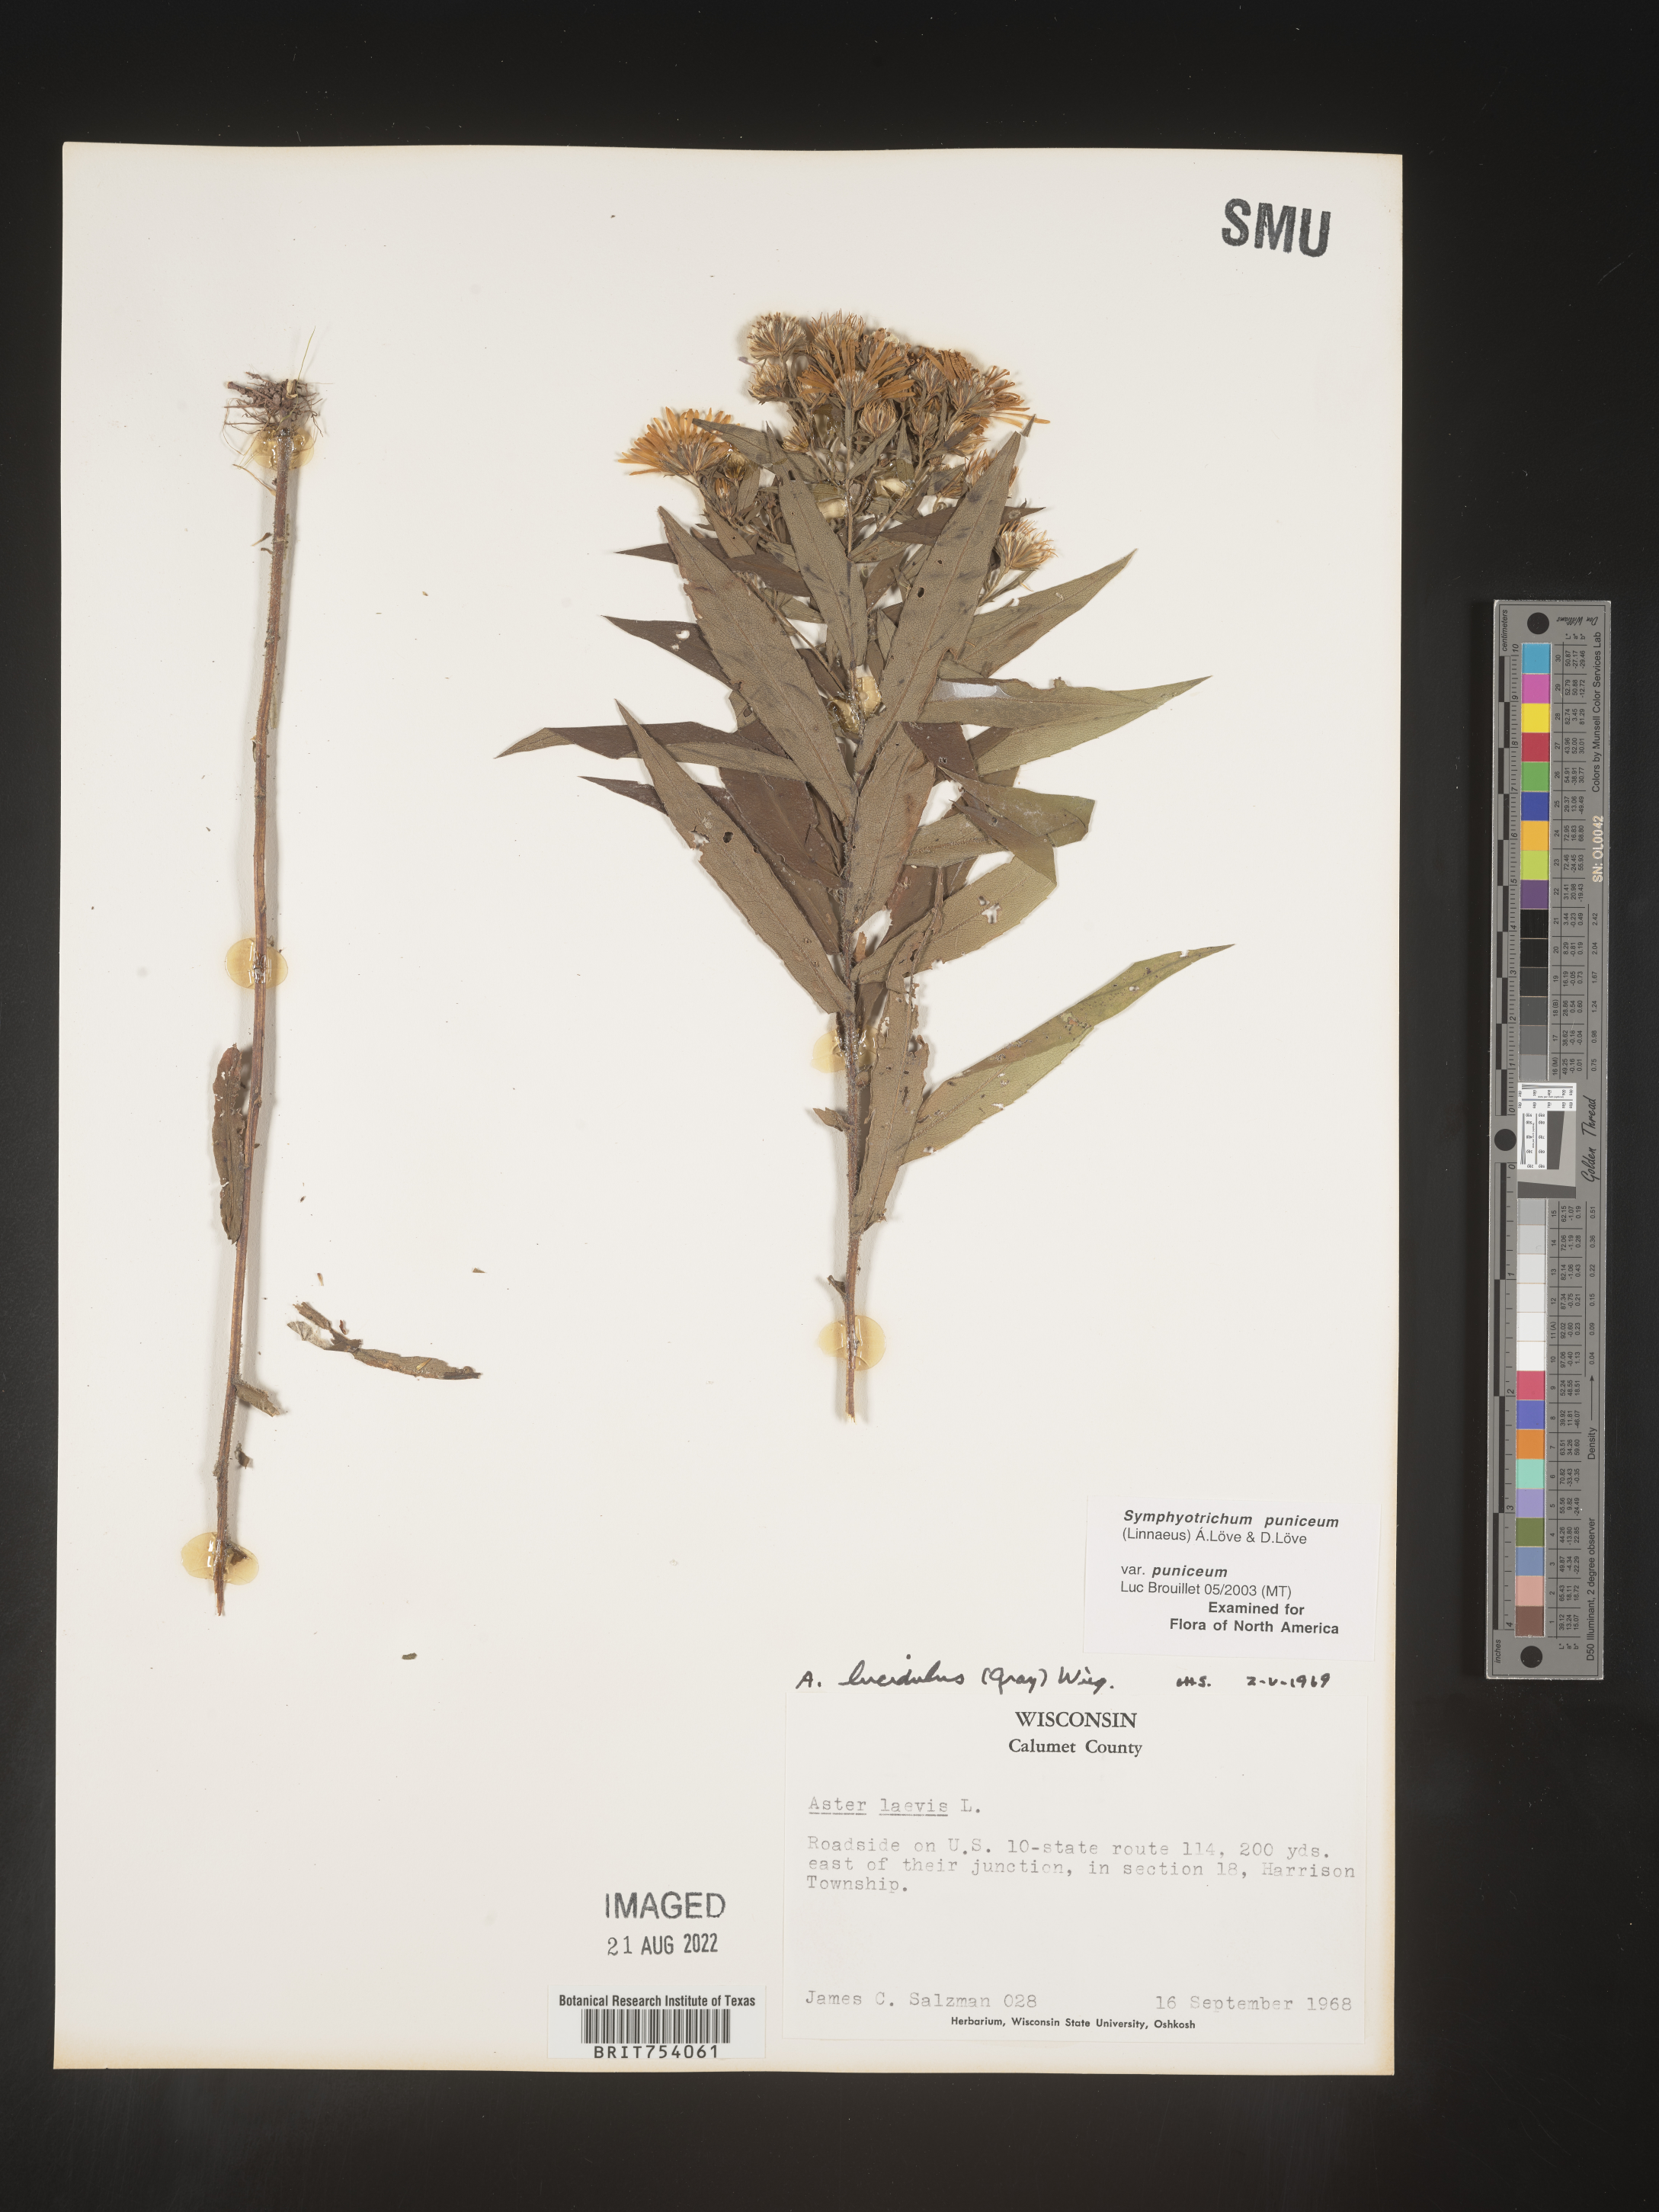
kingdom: Plantae
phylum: Tracheophyta
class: Magnoliopsida
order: Asterales
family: Asteraceae
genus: Symphyotrichum
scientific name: Symphyotrichum puniceum
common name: Bog aster
